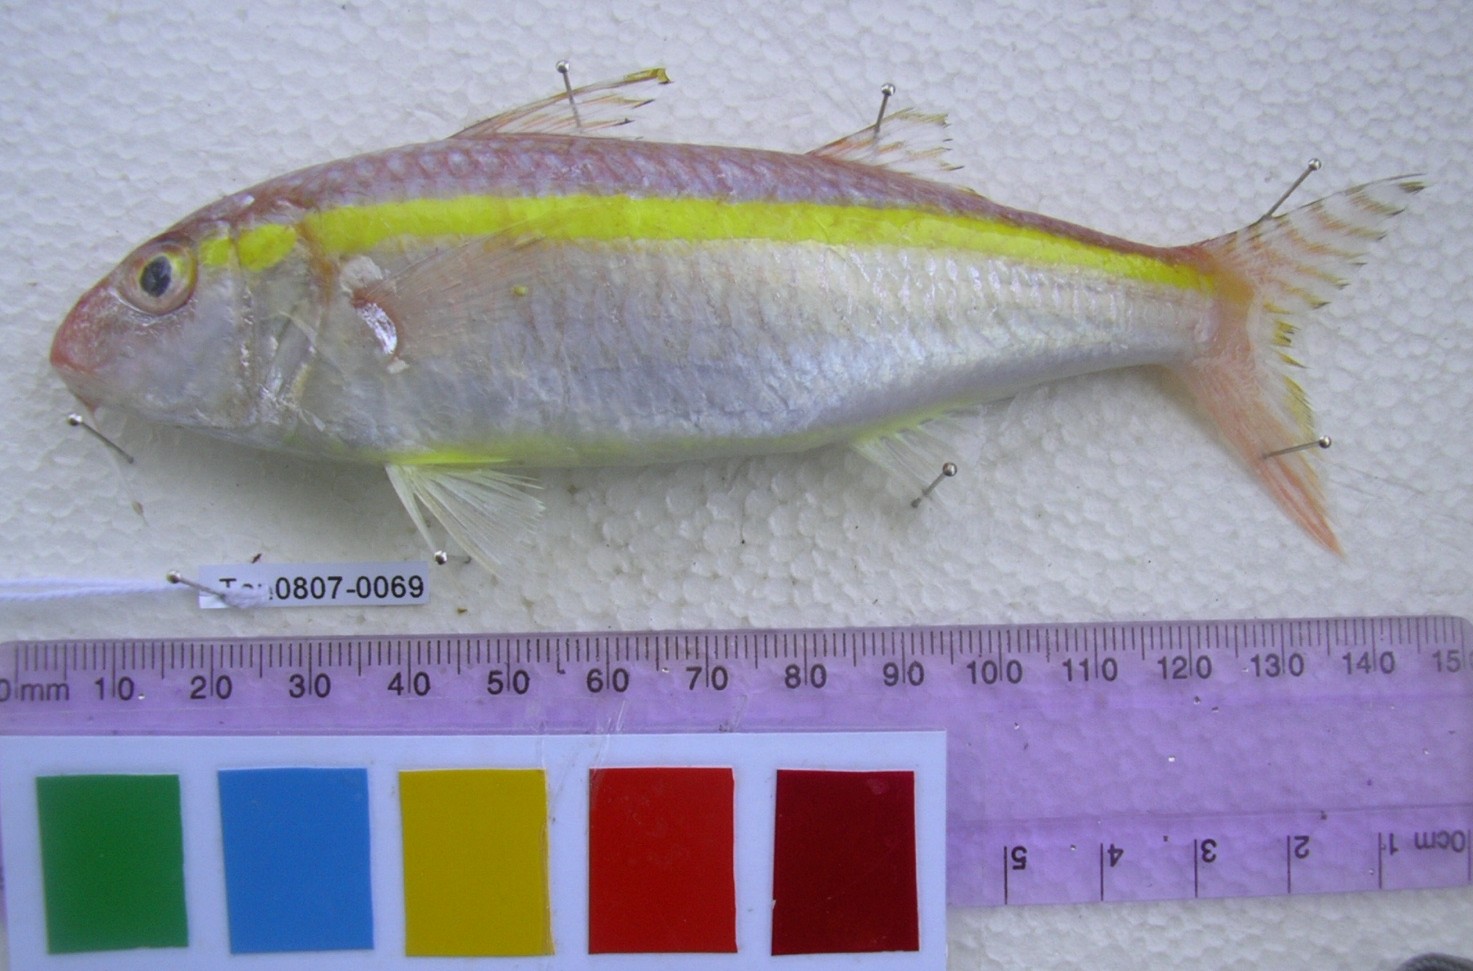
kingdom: Animalia
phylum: Chordata
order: Perciformes
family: Mullidae
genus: Upeneus
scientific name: Upeneus moluccensis
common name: Goldband goatfish
